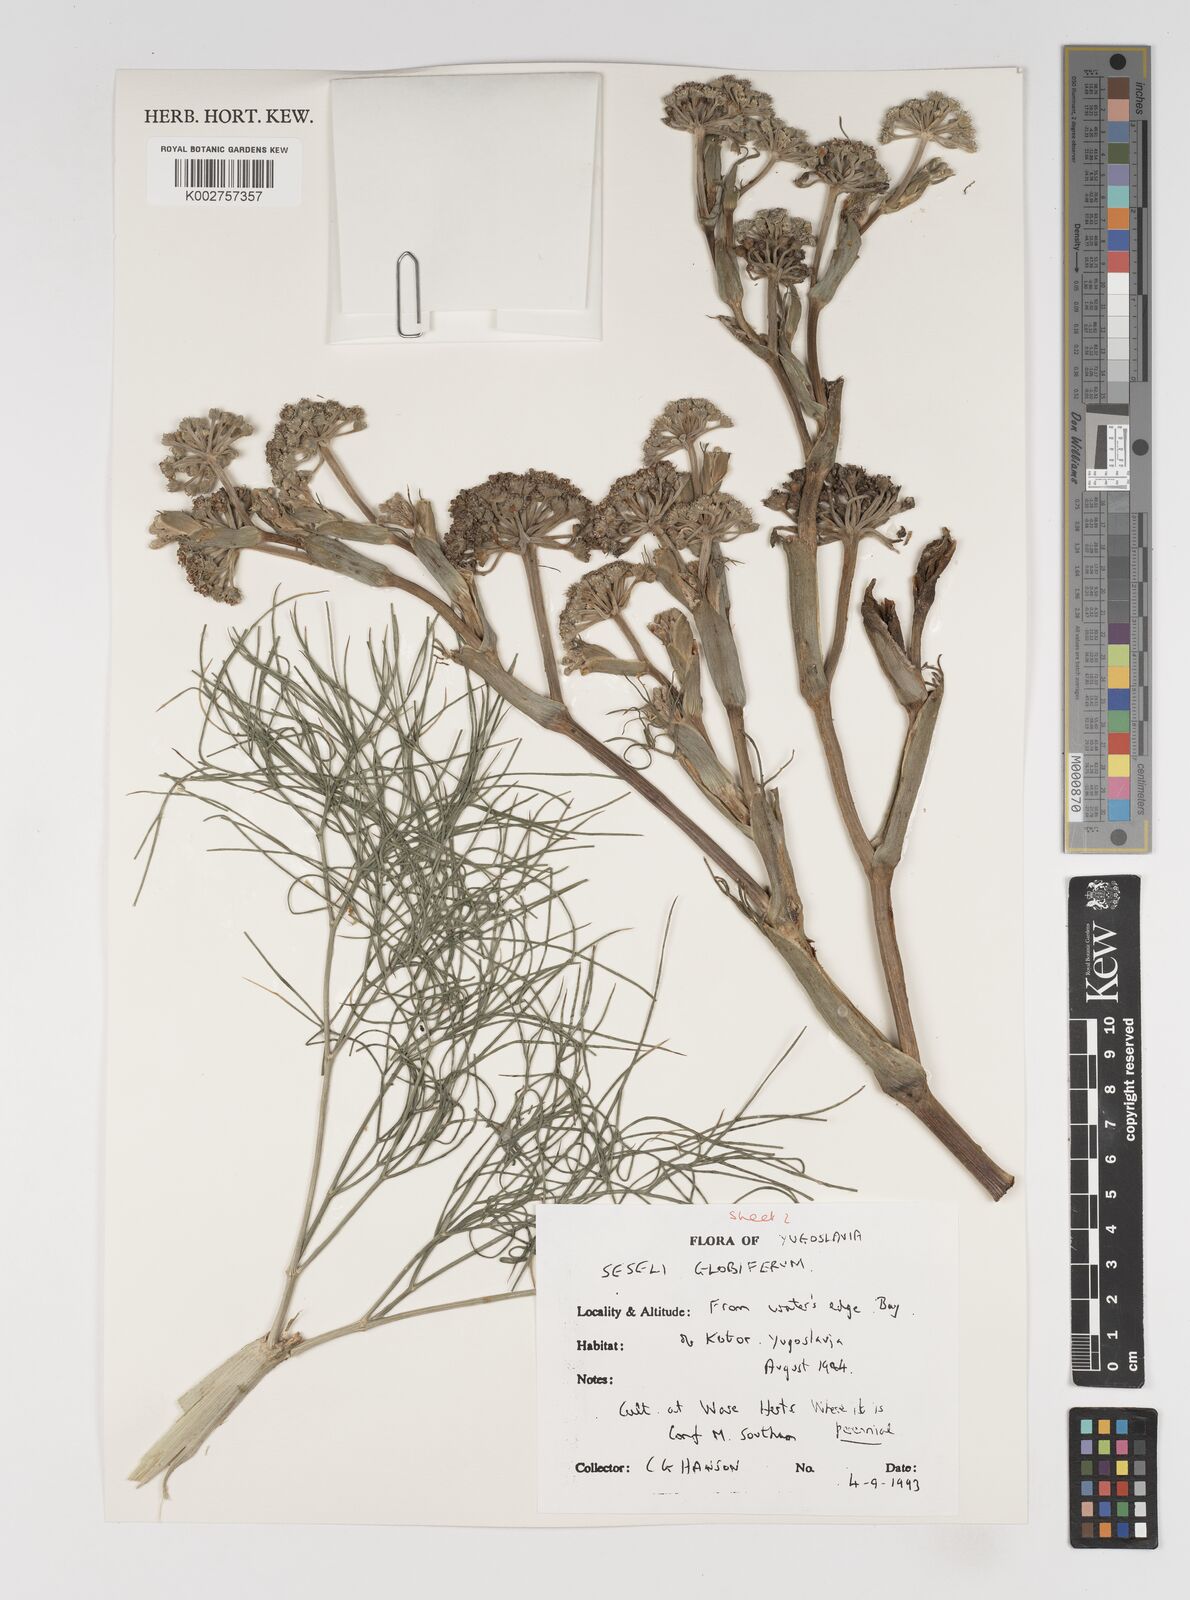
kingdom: Plantae
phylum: Tracheophyta
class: Magnoliopsida
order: Apiales
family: Apiaceae
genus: Seseli
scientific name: Seseli globiferum
